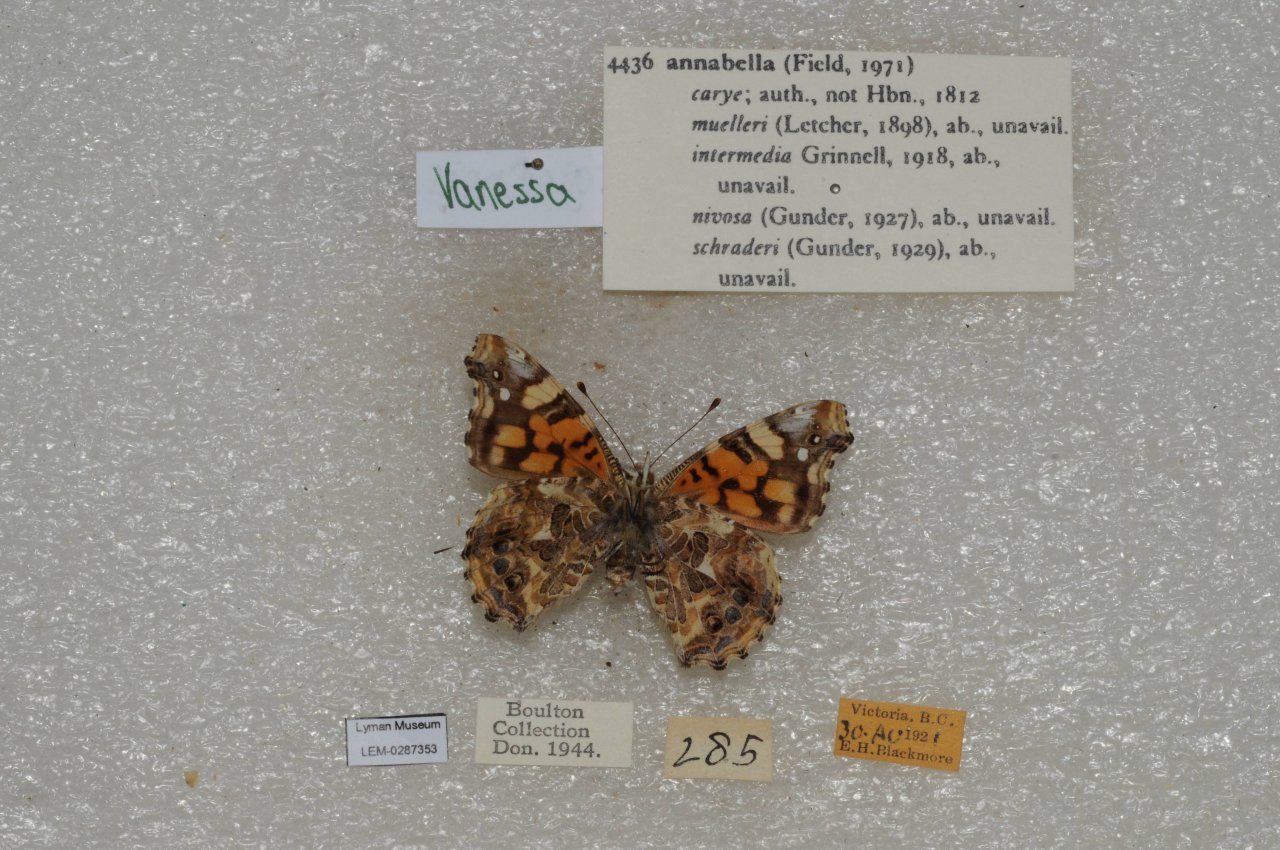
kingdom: Animalia
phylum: Arthropoda
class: Insecta
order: Lepidoptera
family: Nymphalidae
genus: Vanessa
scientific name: Vanessa annabella
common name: West Coast Lady
